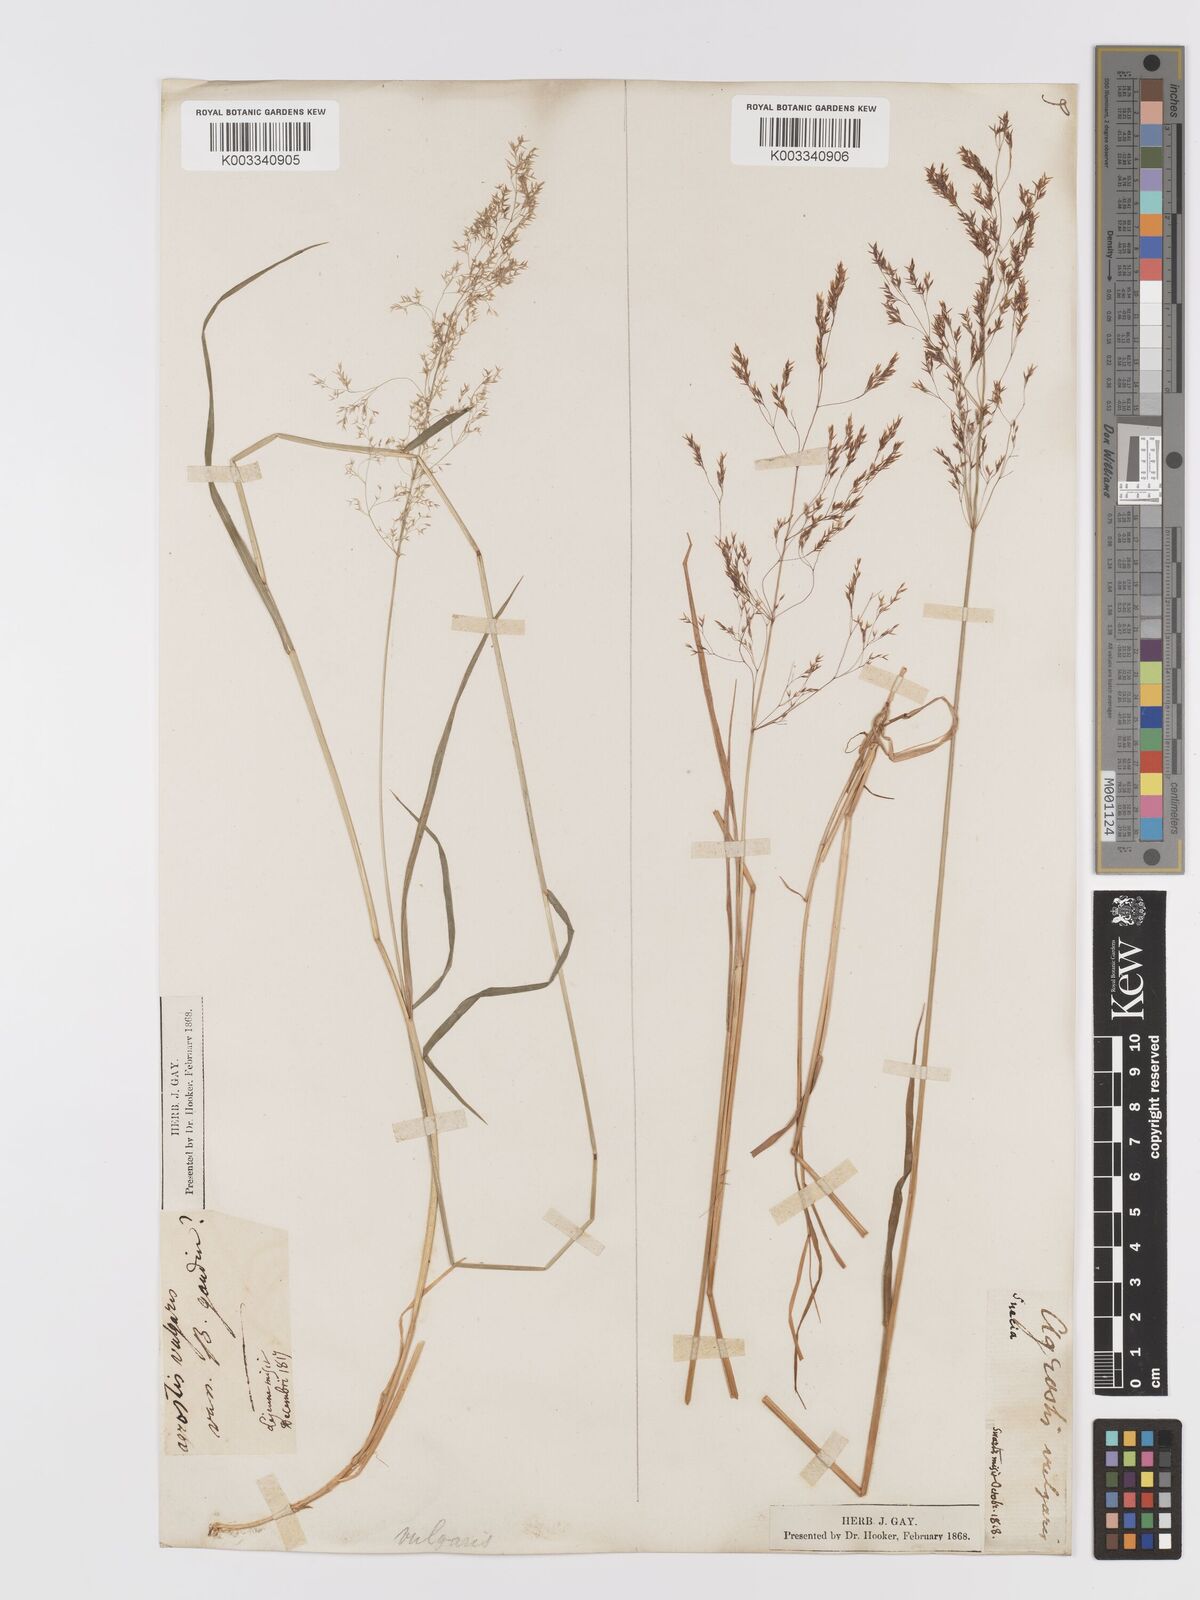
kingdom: Plantae
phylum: Tracheophyta
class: Liliopsida
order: Poales
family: Poaceae
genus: Agrostis
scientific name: Agrostis capillaris
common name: Colonial bentgrass
